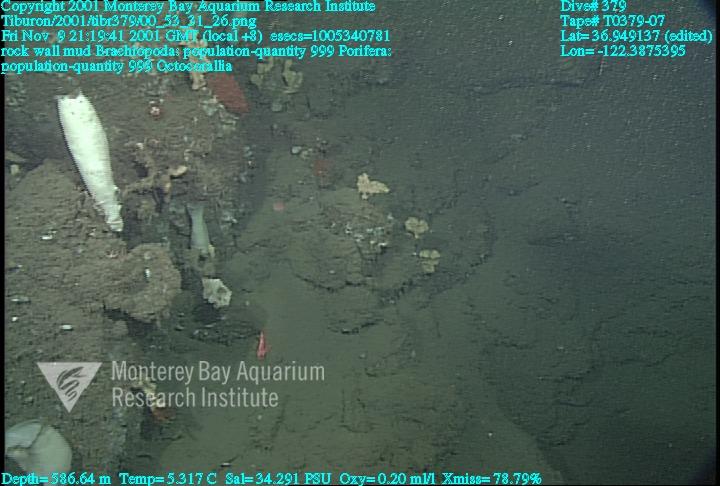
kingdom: Animalia
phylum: Porifera
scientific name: Porifera
